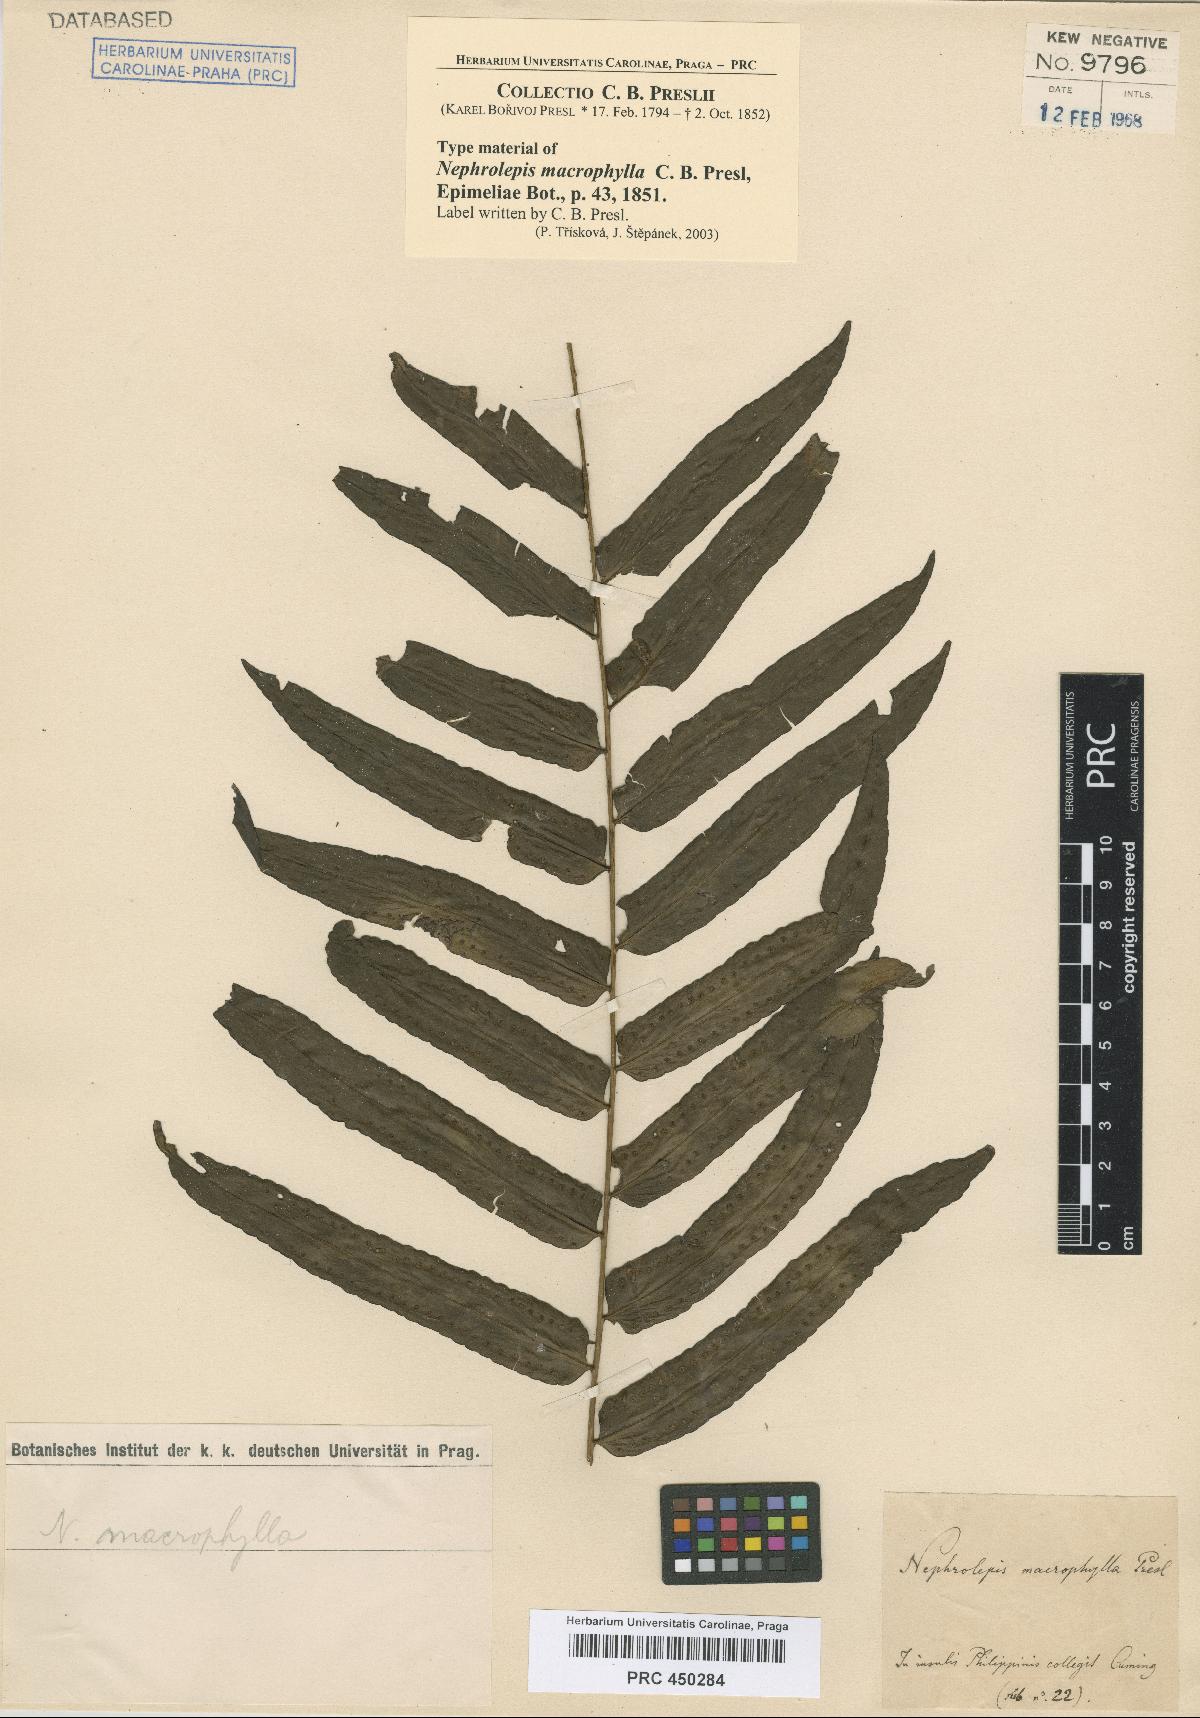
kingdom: Plantae
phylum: Tracheophyta
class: Polypodiopsida
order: Polypodiales
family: Nephrolepidaceae
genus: Nephrolepis
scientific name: Nephrolepis biserrata
